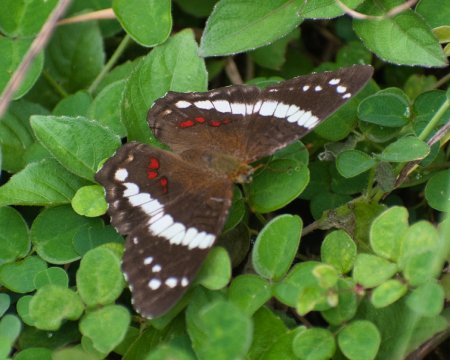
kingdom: Animalia
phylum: Arthropoda
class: Insecta
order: Lepidoptera
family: Nymphalidae
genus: Anartia
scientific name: Anartia fatima
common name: Banded Peacock
